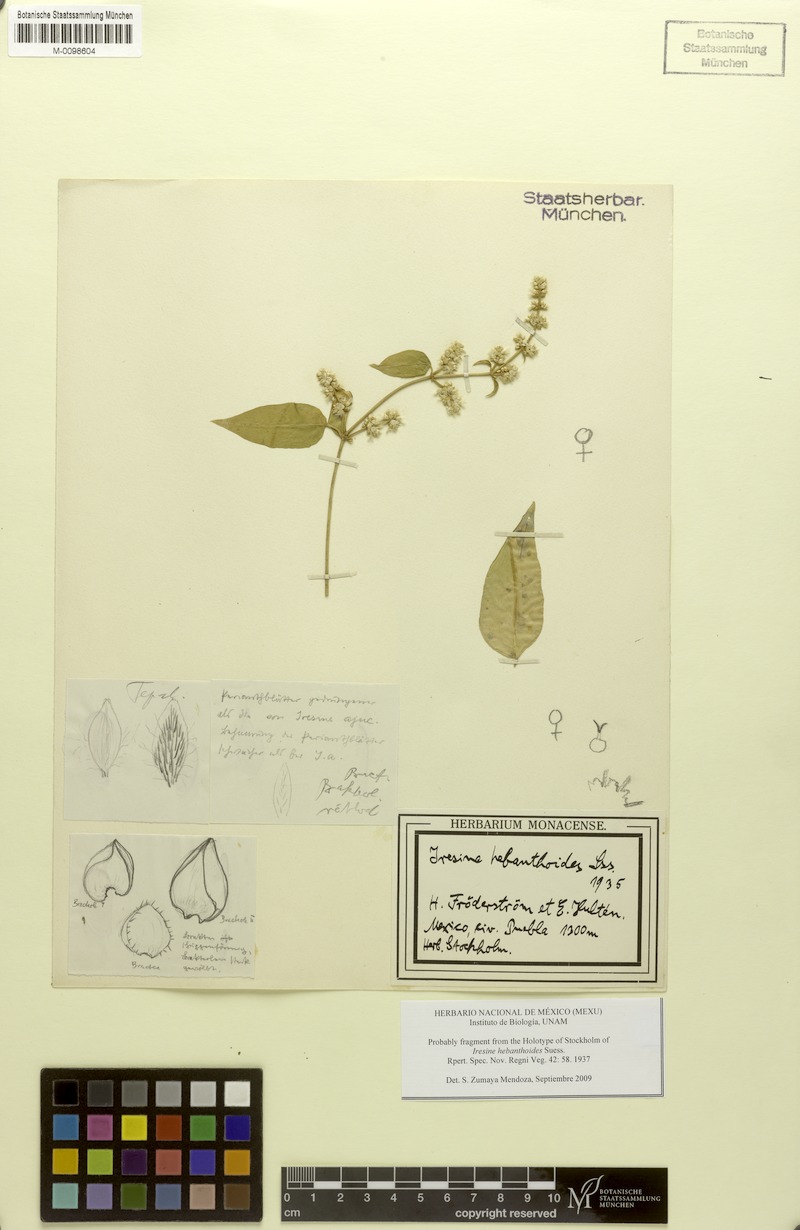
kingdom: Plantae
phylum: Tracheophyta
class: Magnoliopsida
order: Caryophyllales
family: Amaranthaceae
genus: Iresine
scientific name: Iresine hebanthoides
